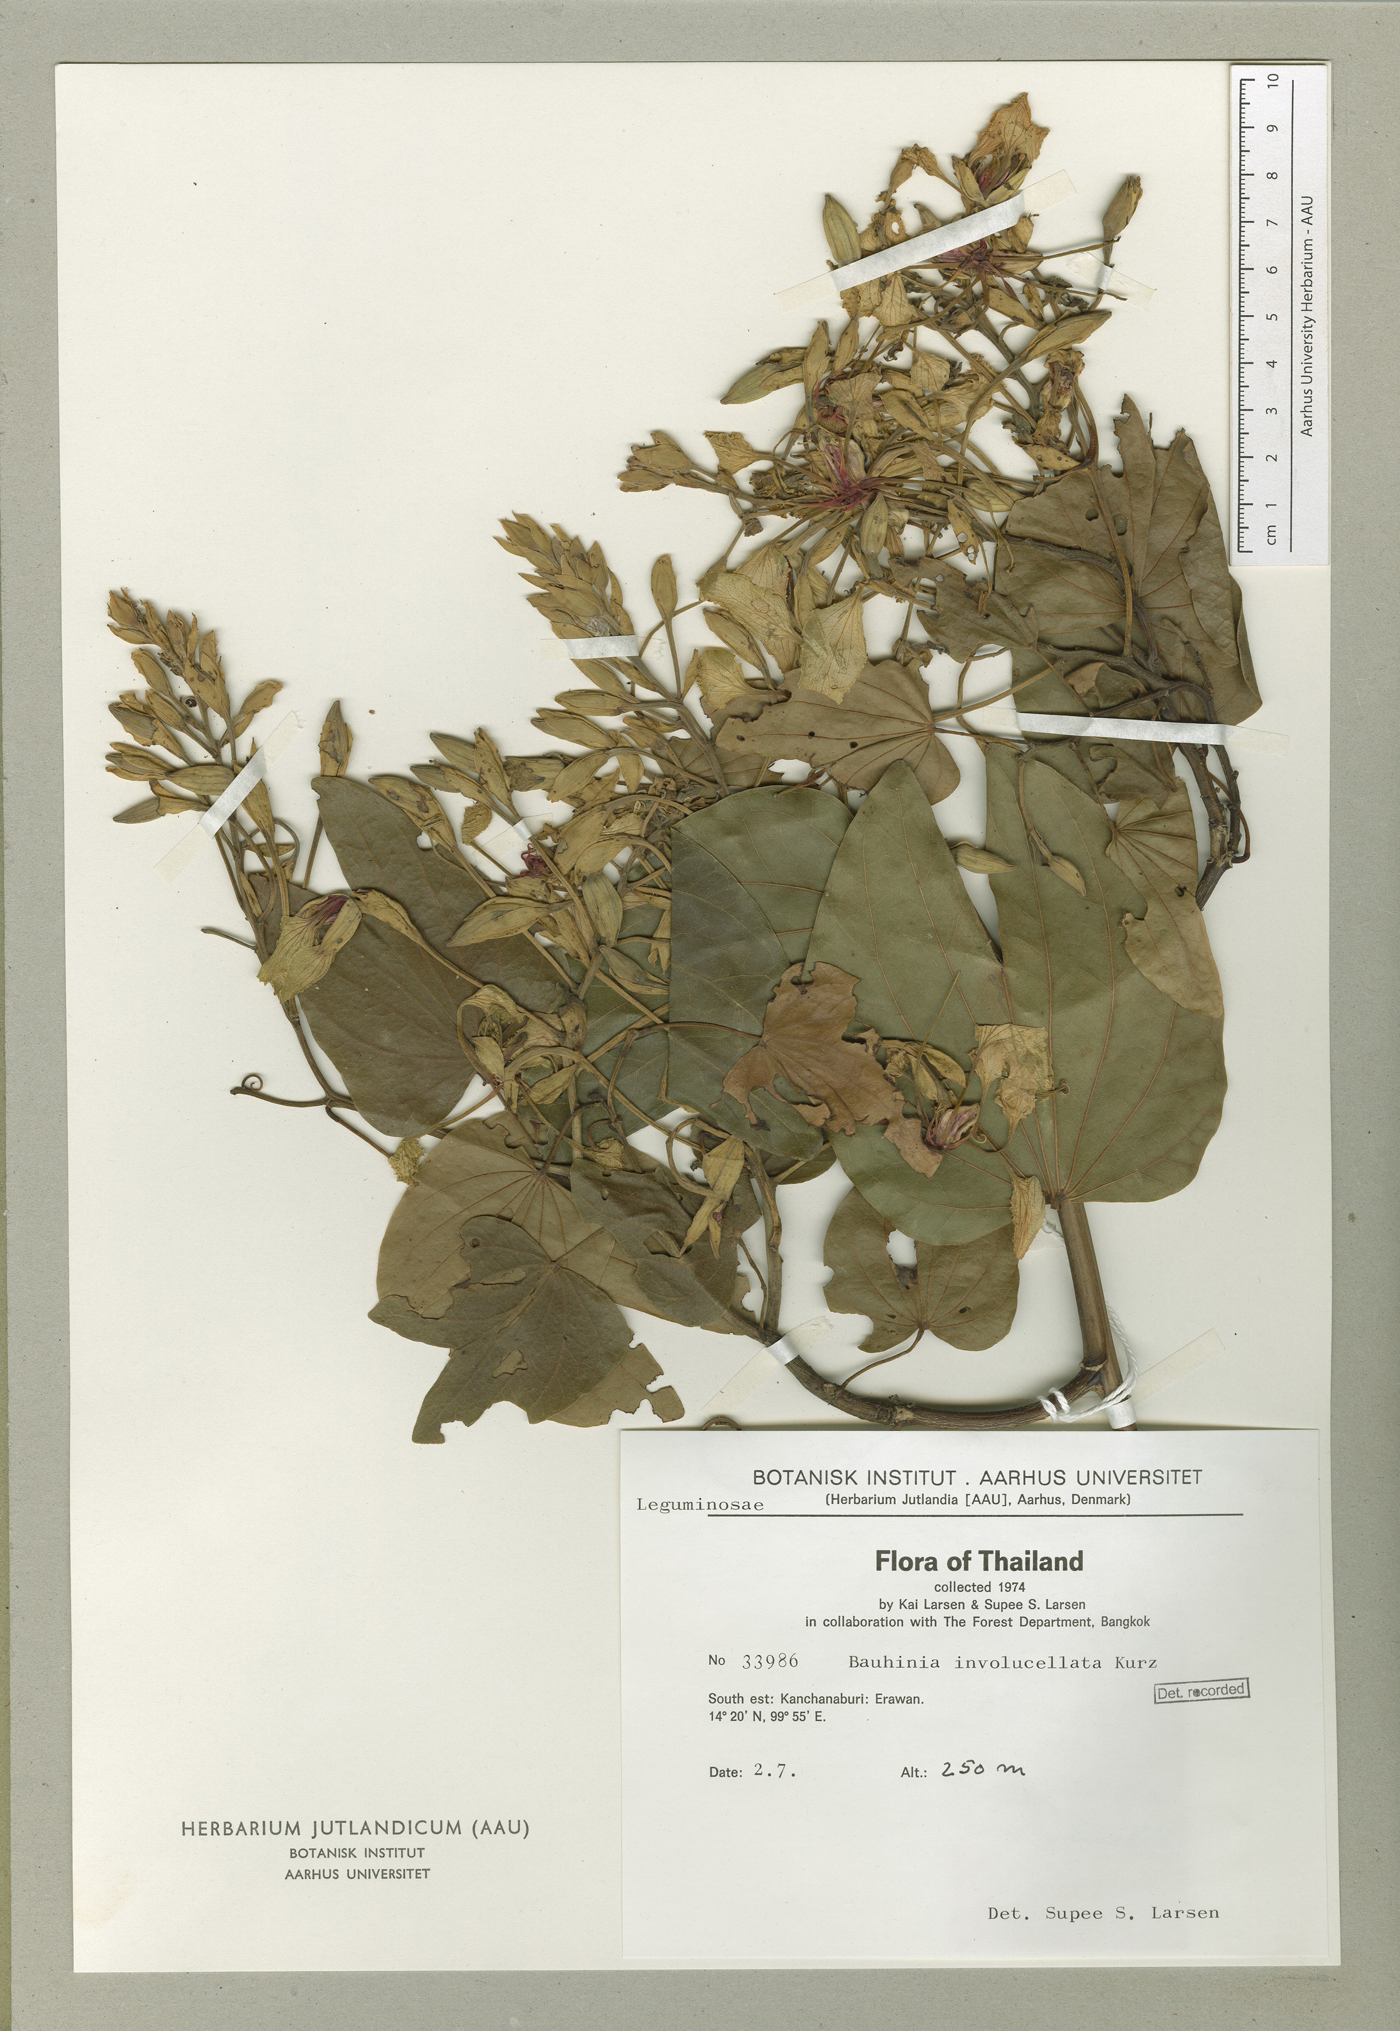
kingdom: Plantae
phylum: Tracheophyta
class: Magnoliopsida
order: Fabales
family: Fabaceae
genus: Phanera
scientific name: Phanera involucellata
